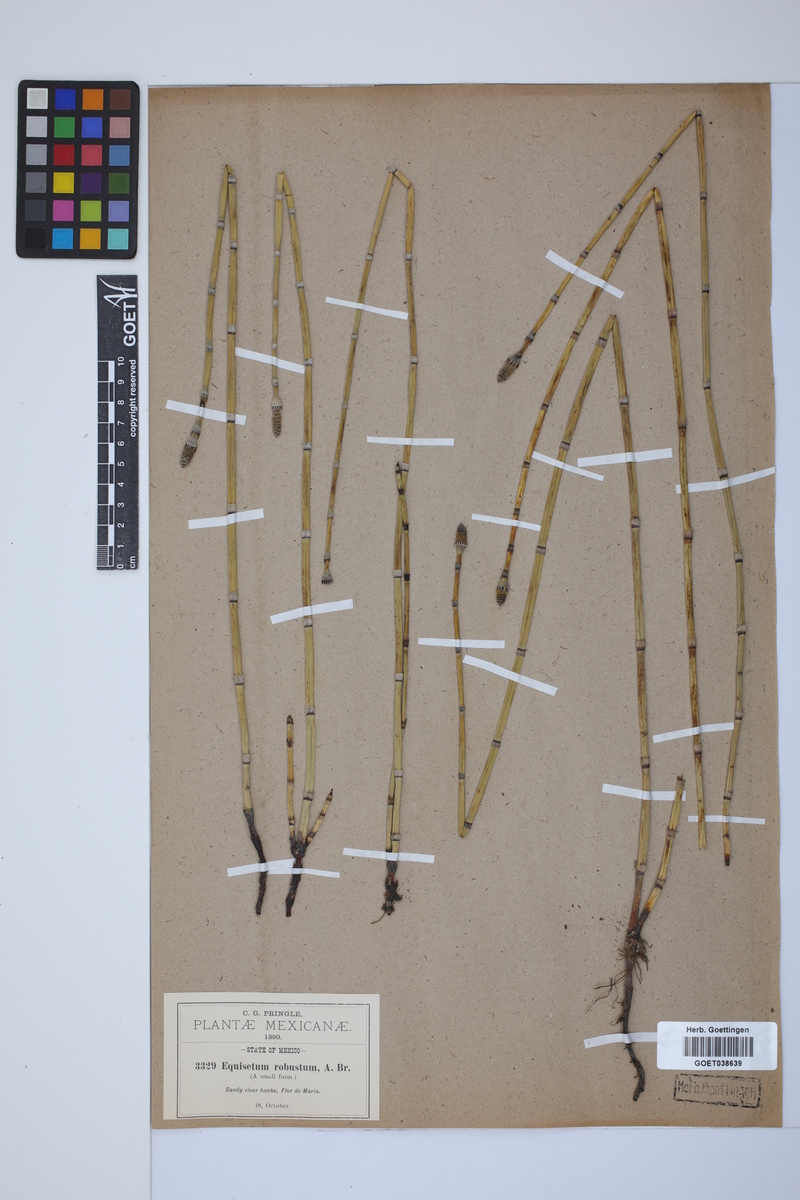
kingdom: Plantae
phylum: Tracheophyta
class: Polypodiopsida
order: Equisetales
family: Equisetaceae
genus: Equisetum
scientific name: Equisetum hyemale
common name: Rough horsetail
